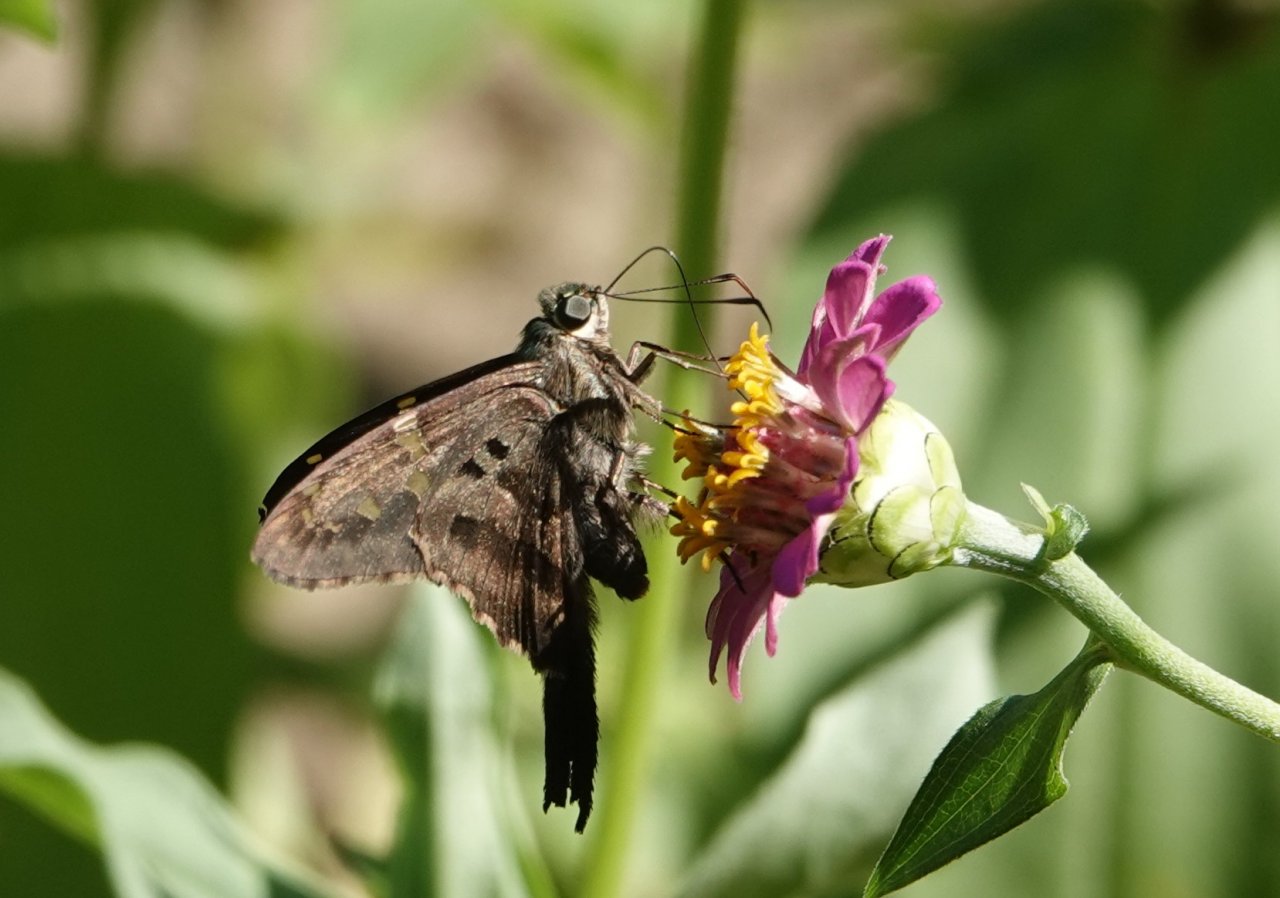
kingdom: Animalia
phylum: Arthropoda
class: Insecta
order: Lepidoptera
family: Hesperiidae
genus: Urbanus
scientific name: Urbanus proteus
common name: Long-tailed Skipper
